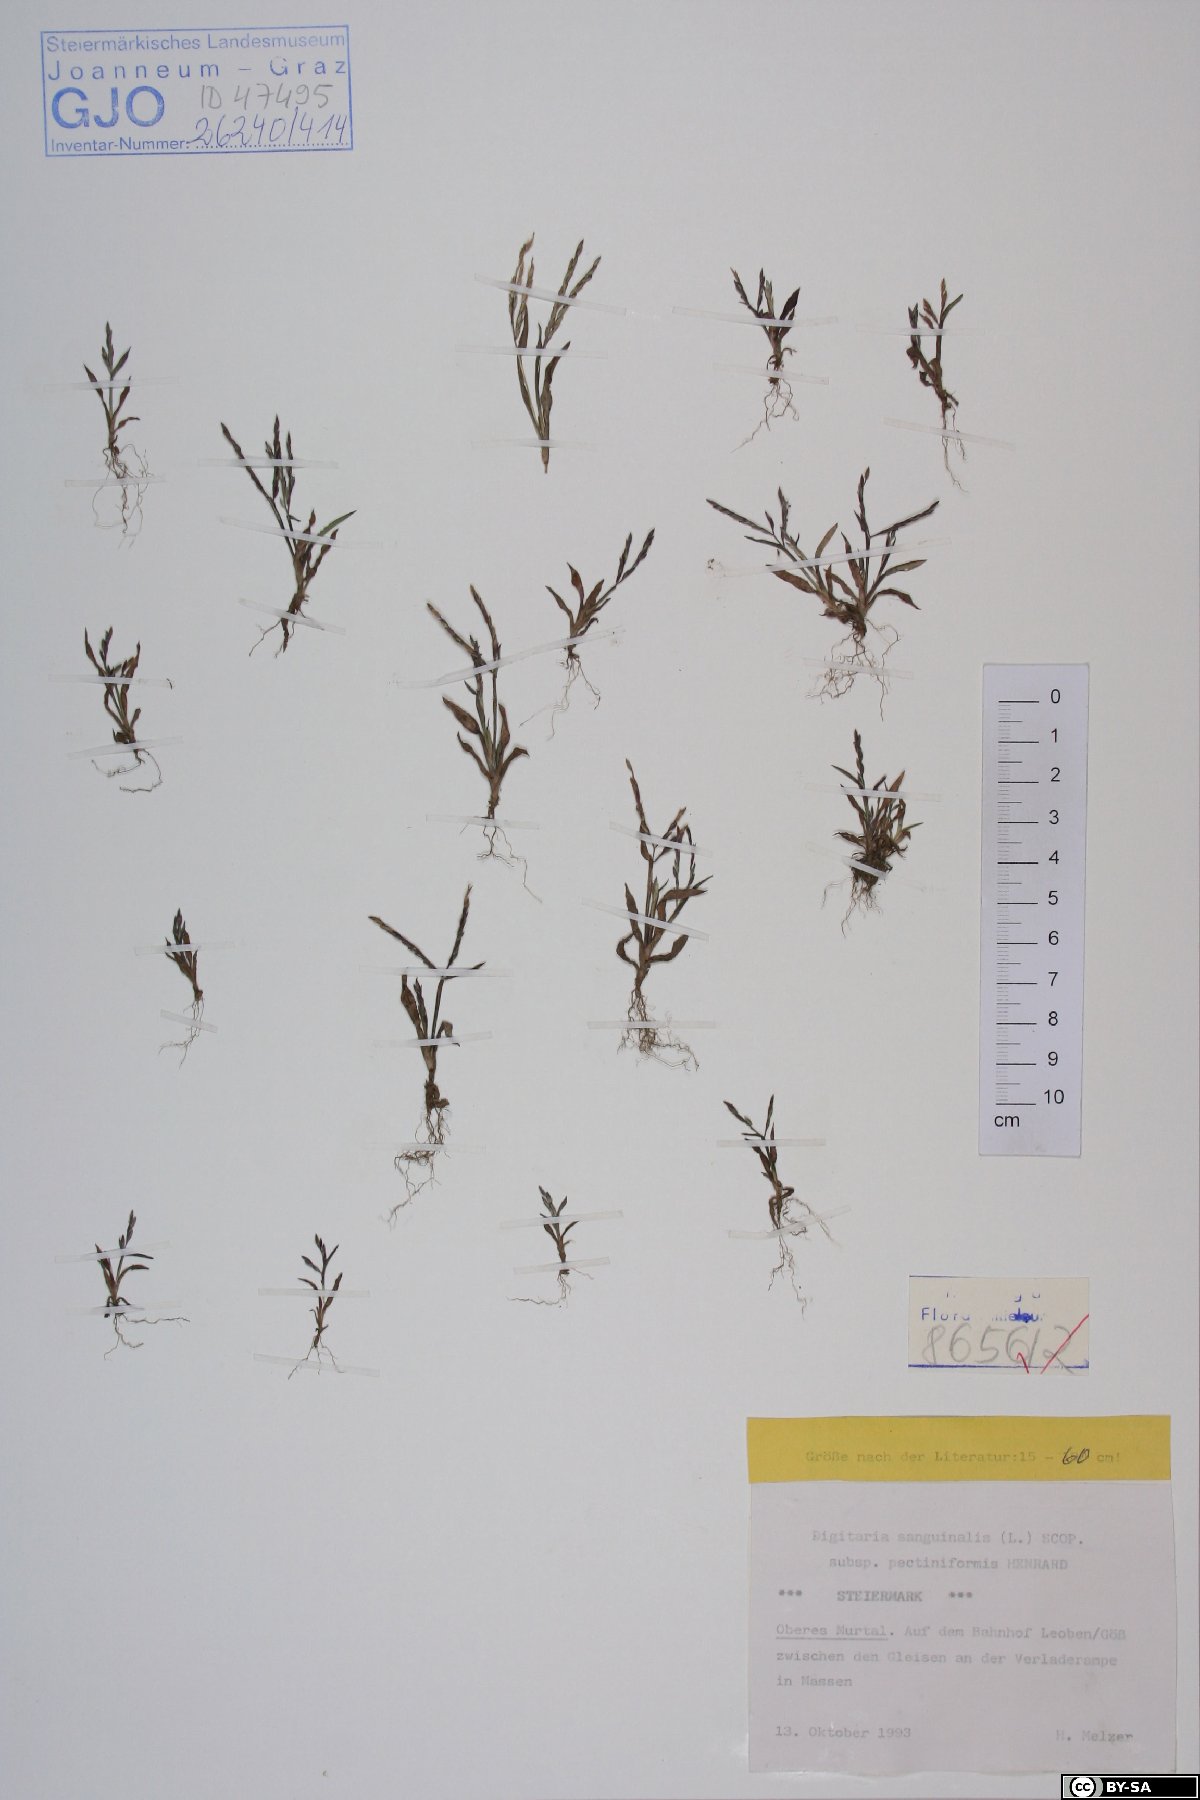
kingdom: Plantae
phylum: Tracheophyta
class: Liliopsida
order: Poales
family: Poaceae
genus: Digitaria
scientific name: Digitaria sanguinalis
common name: Hairy crabgrass
